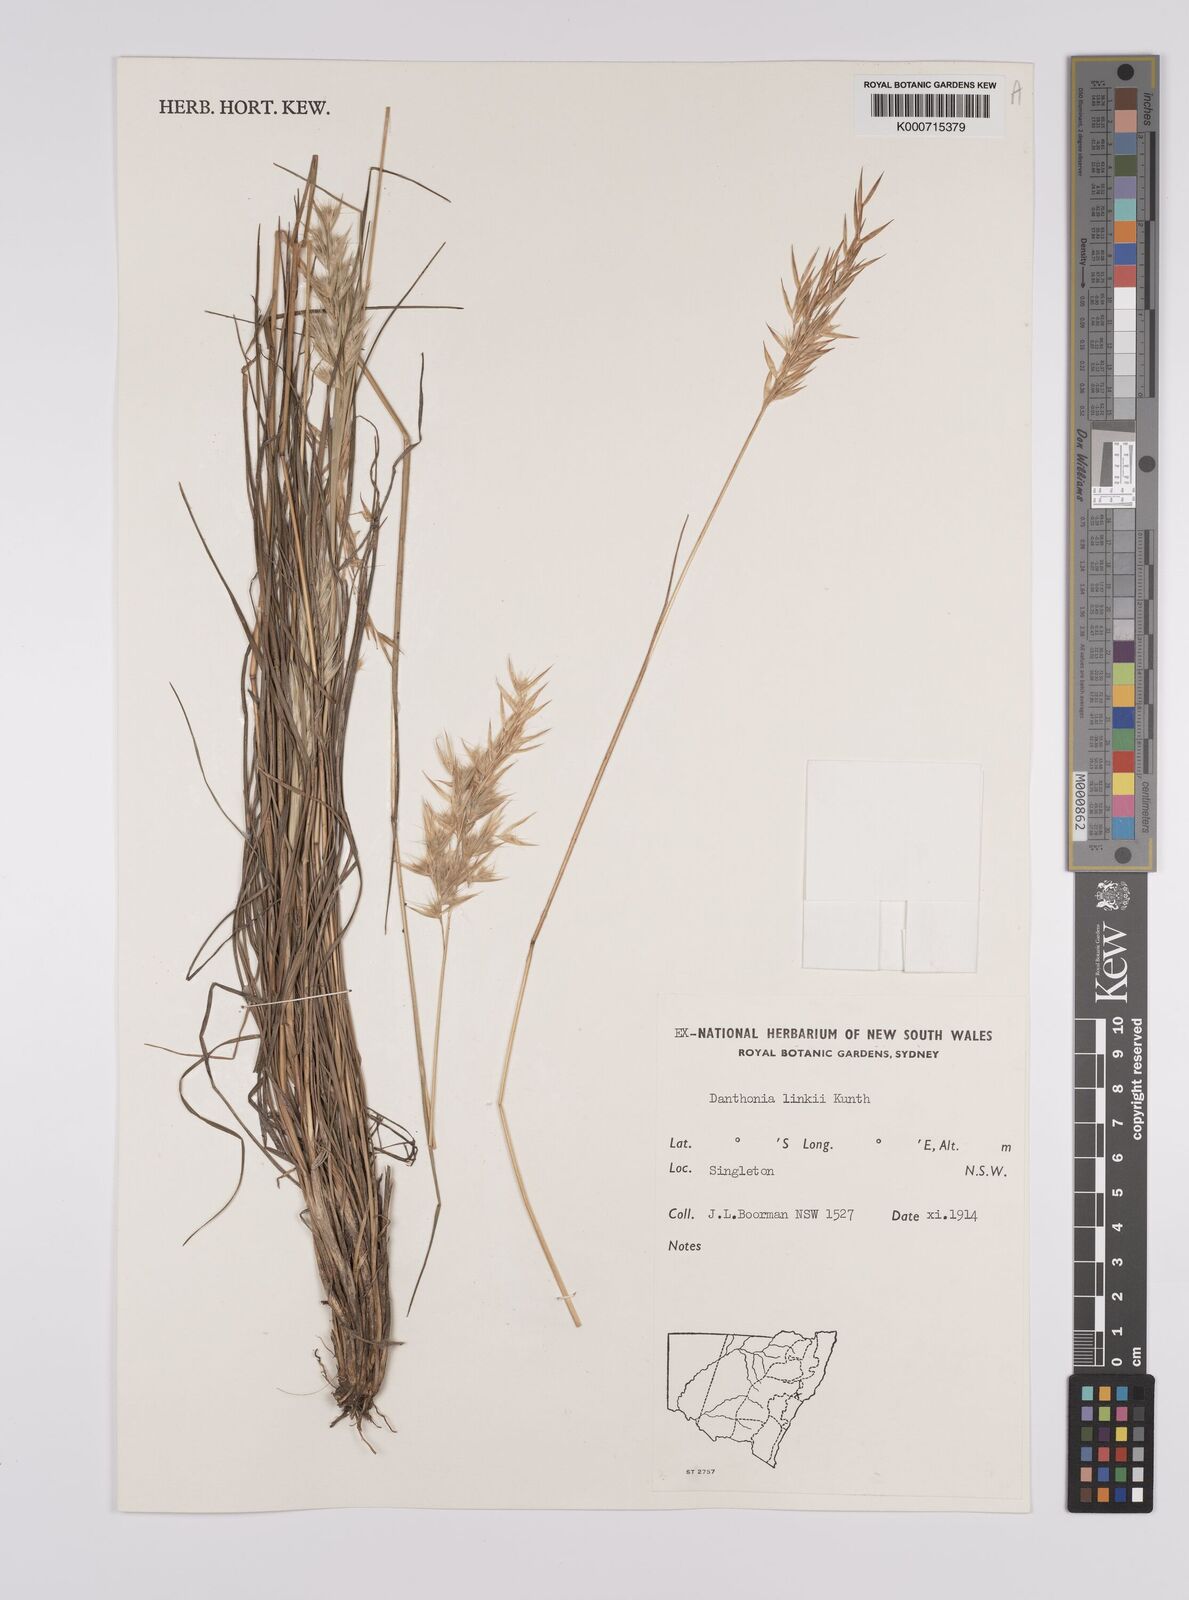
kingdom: Plantae
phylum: Tracheophyta
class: Liliopsida
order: Poales
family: Poaceae
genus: Rytidosperma
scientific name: Rytidosperma bipartitum
